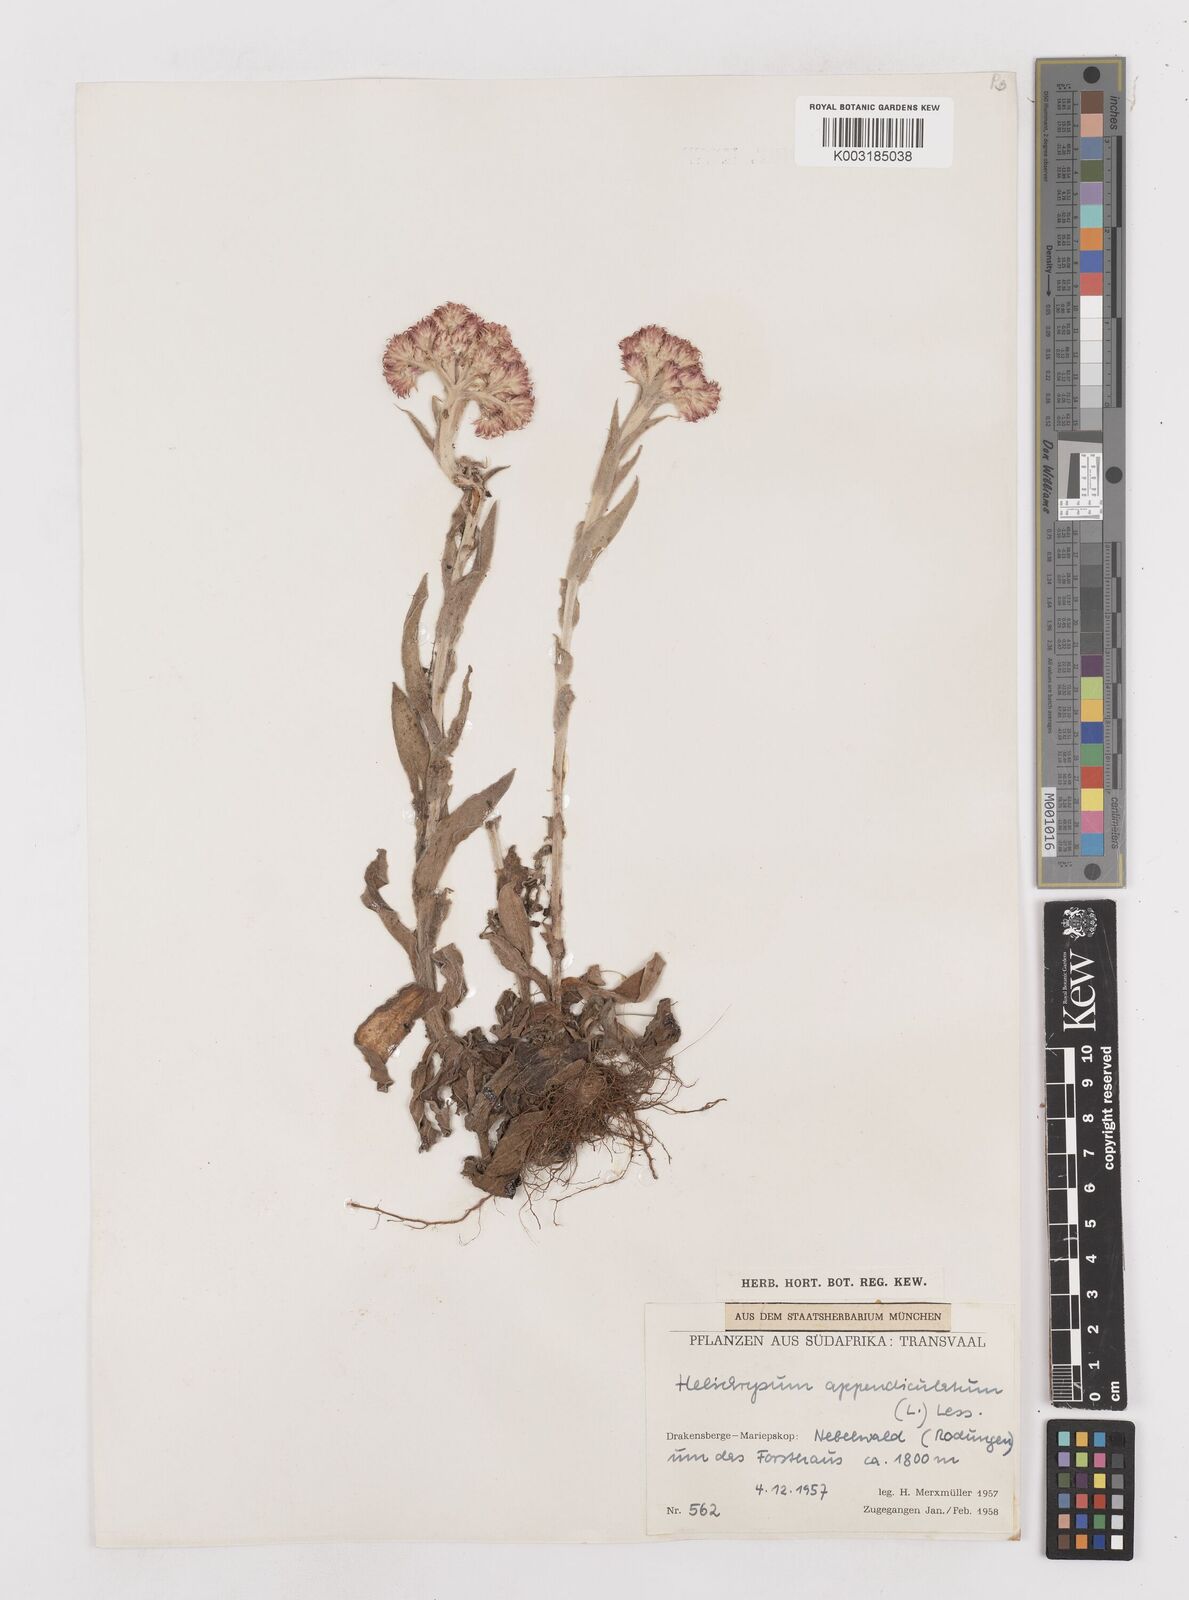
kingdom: Plantae
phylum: Tracheophyta
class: Magnoliopsida
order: Asterales
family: Asteraceae
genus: Helichrysum
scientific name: Helichrysum appendiculatum
